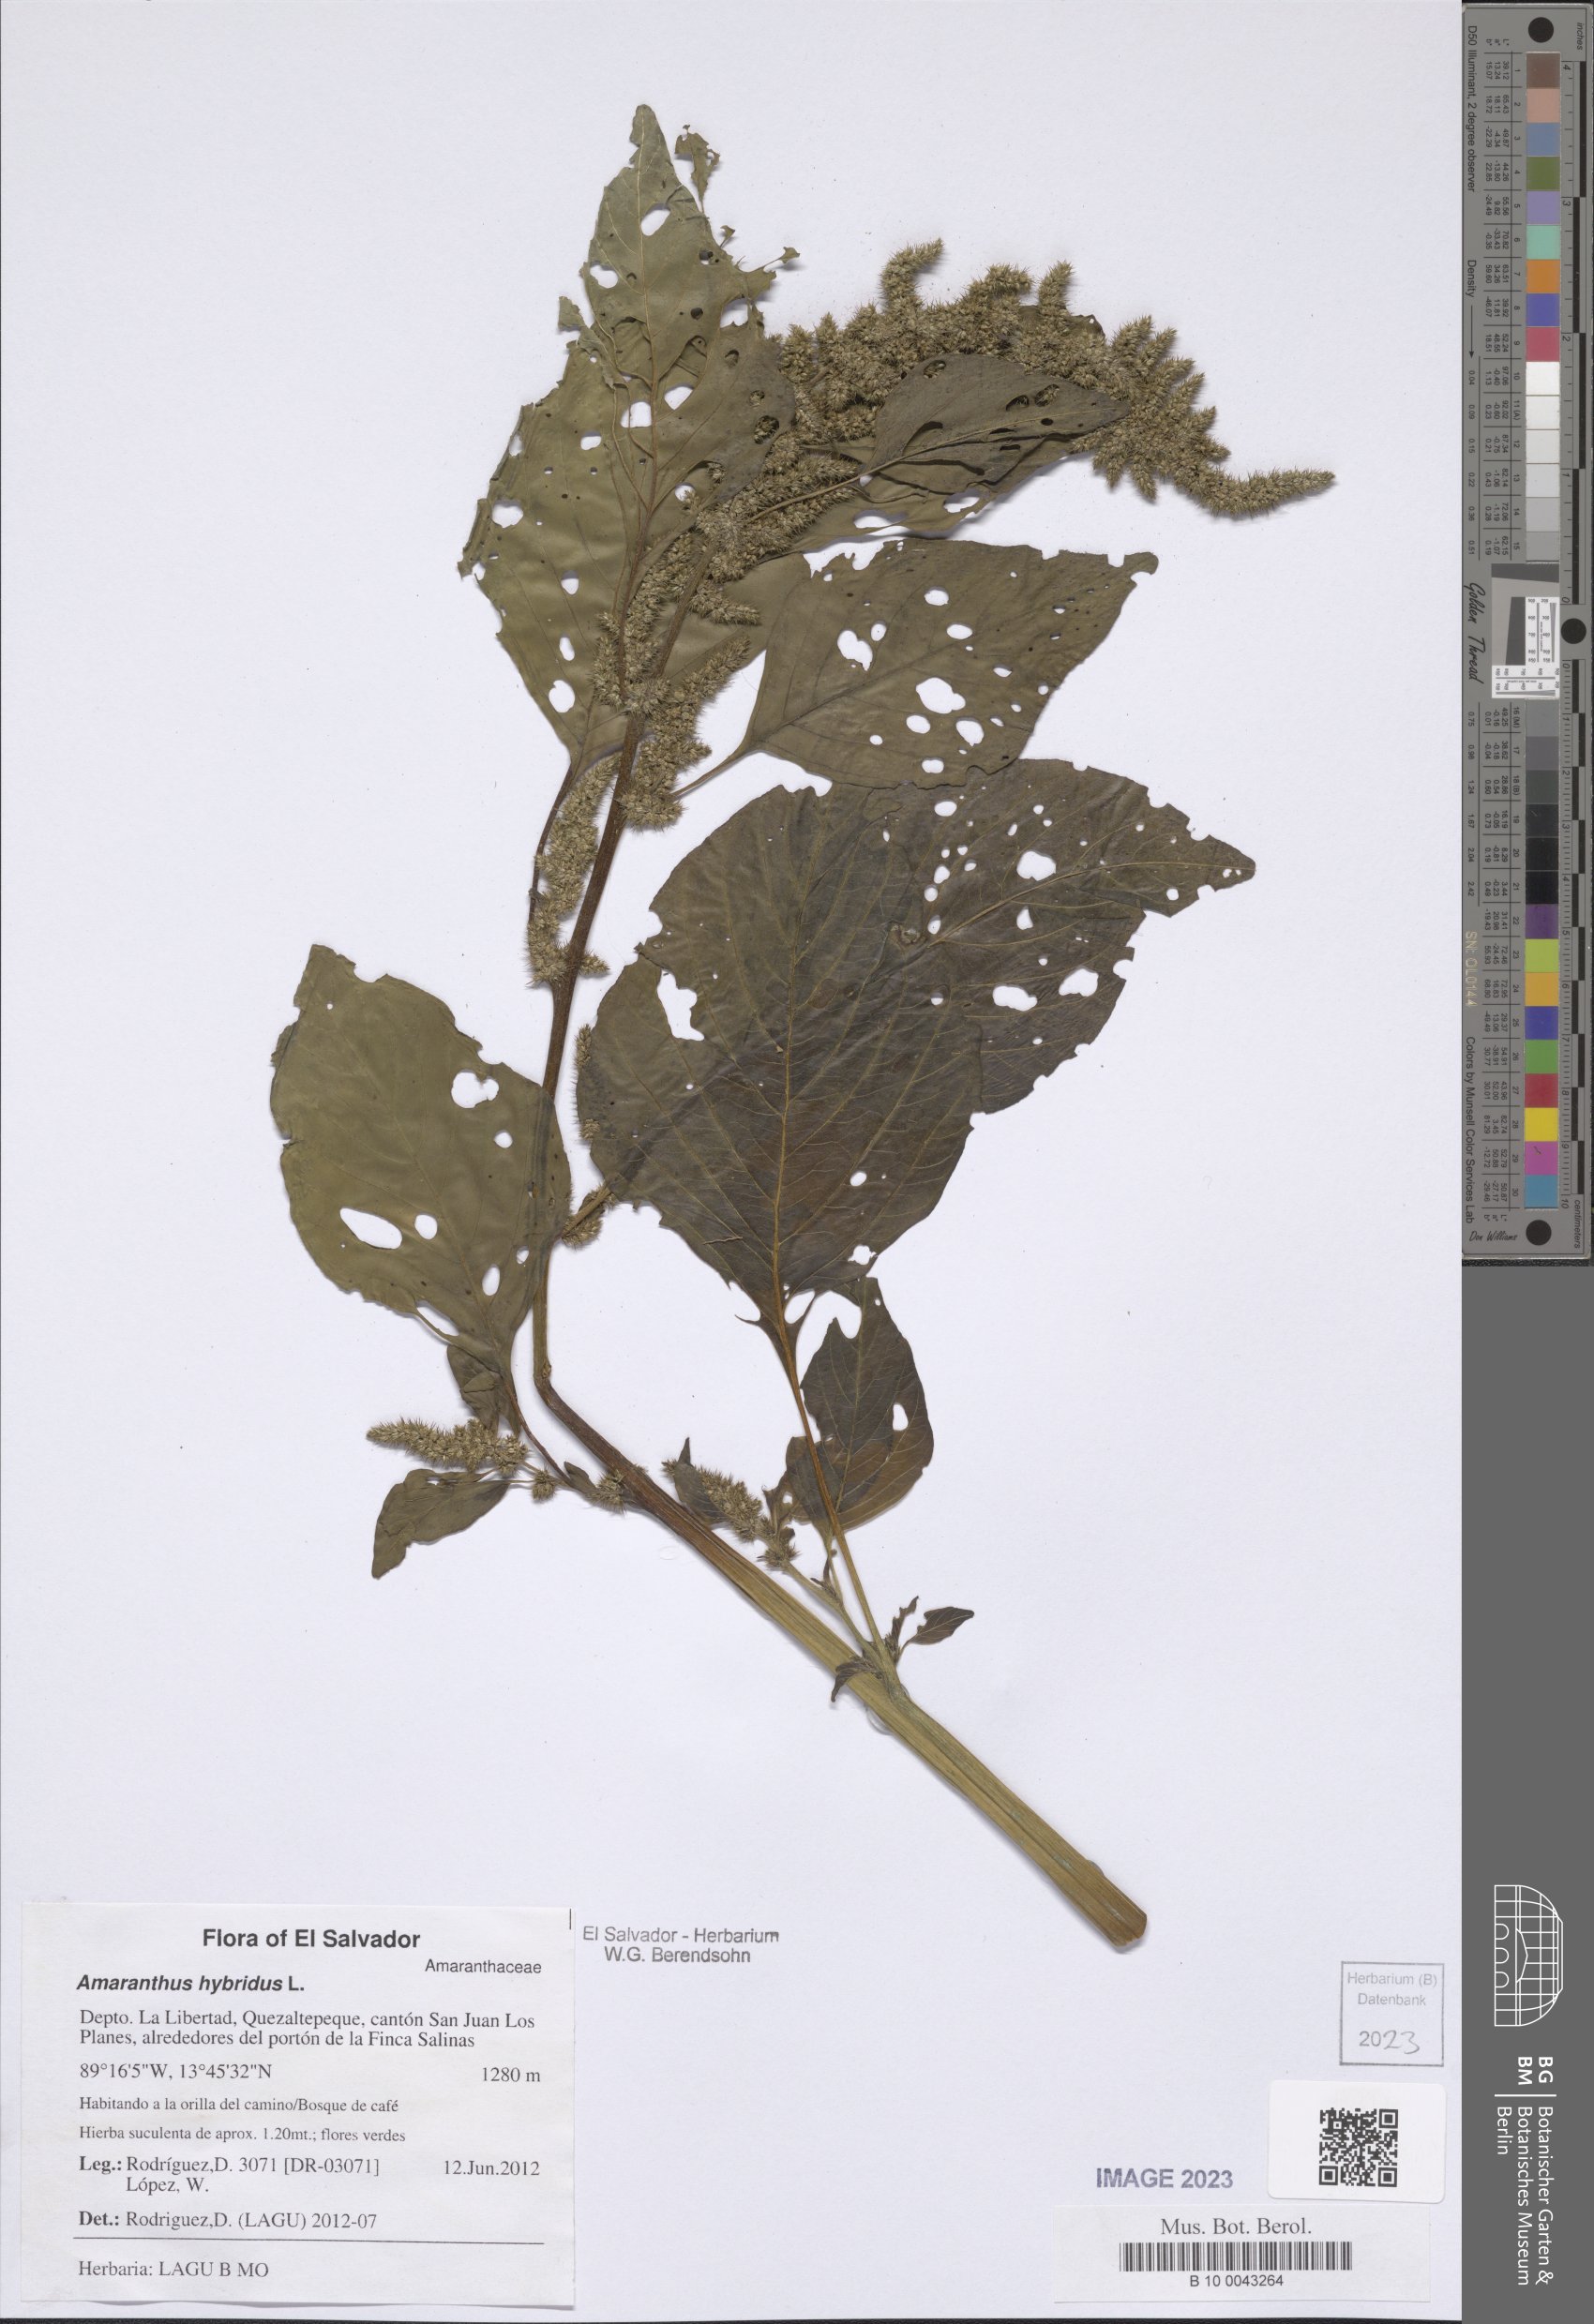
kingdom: Plantae
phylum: Tracheophyta
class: Magnoliopsida
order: Caryophyllales
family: Amaranthaceae
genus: Amaranthus
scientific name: Amaranthus hybridus
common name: Green amaranth
